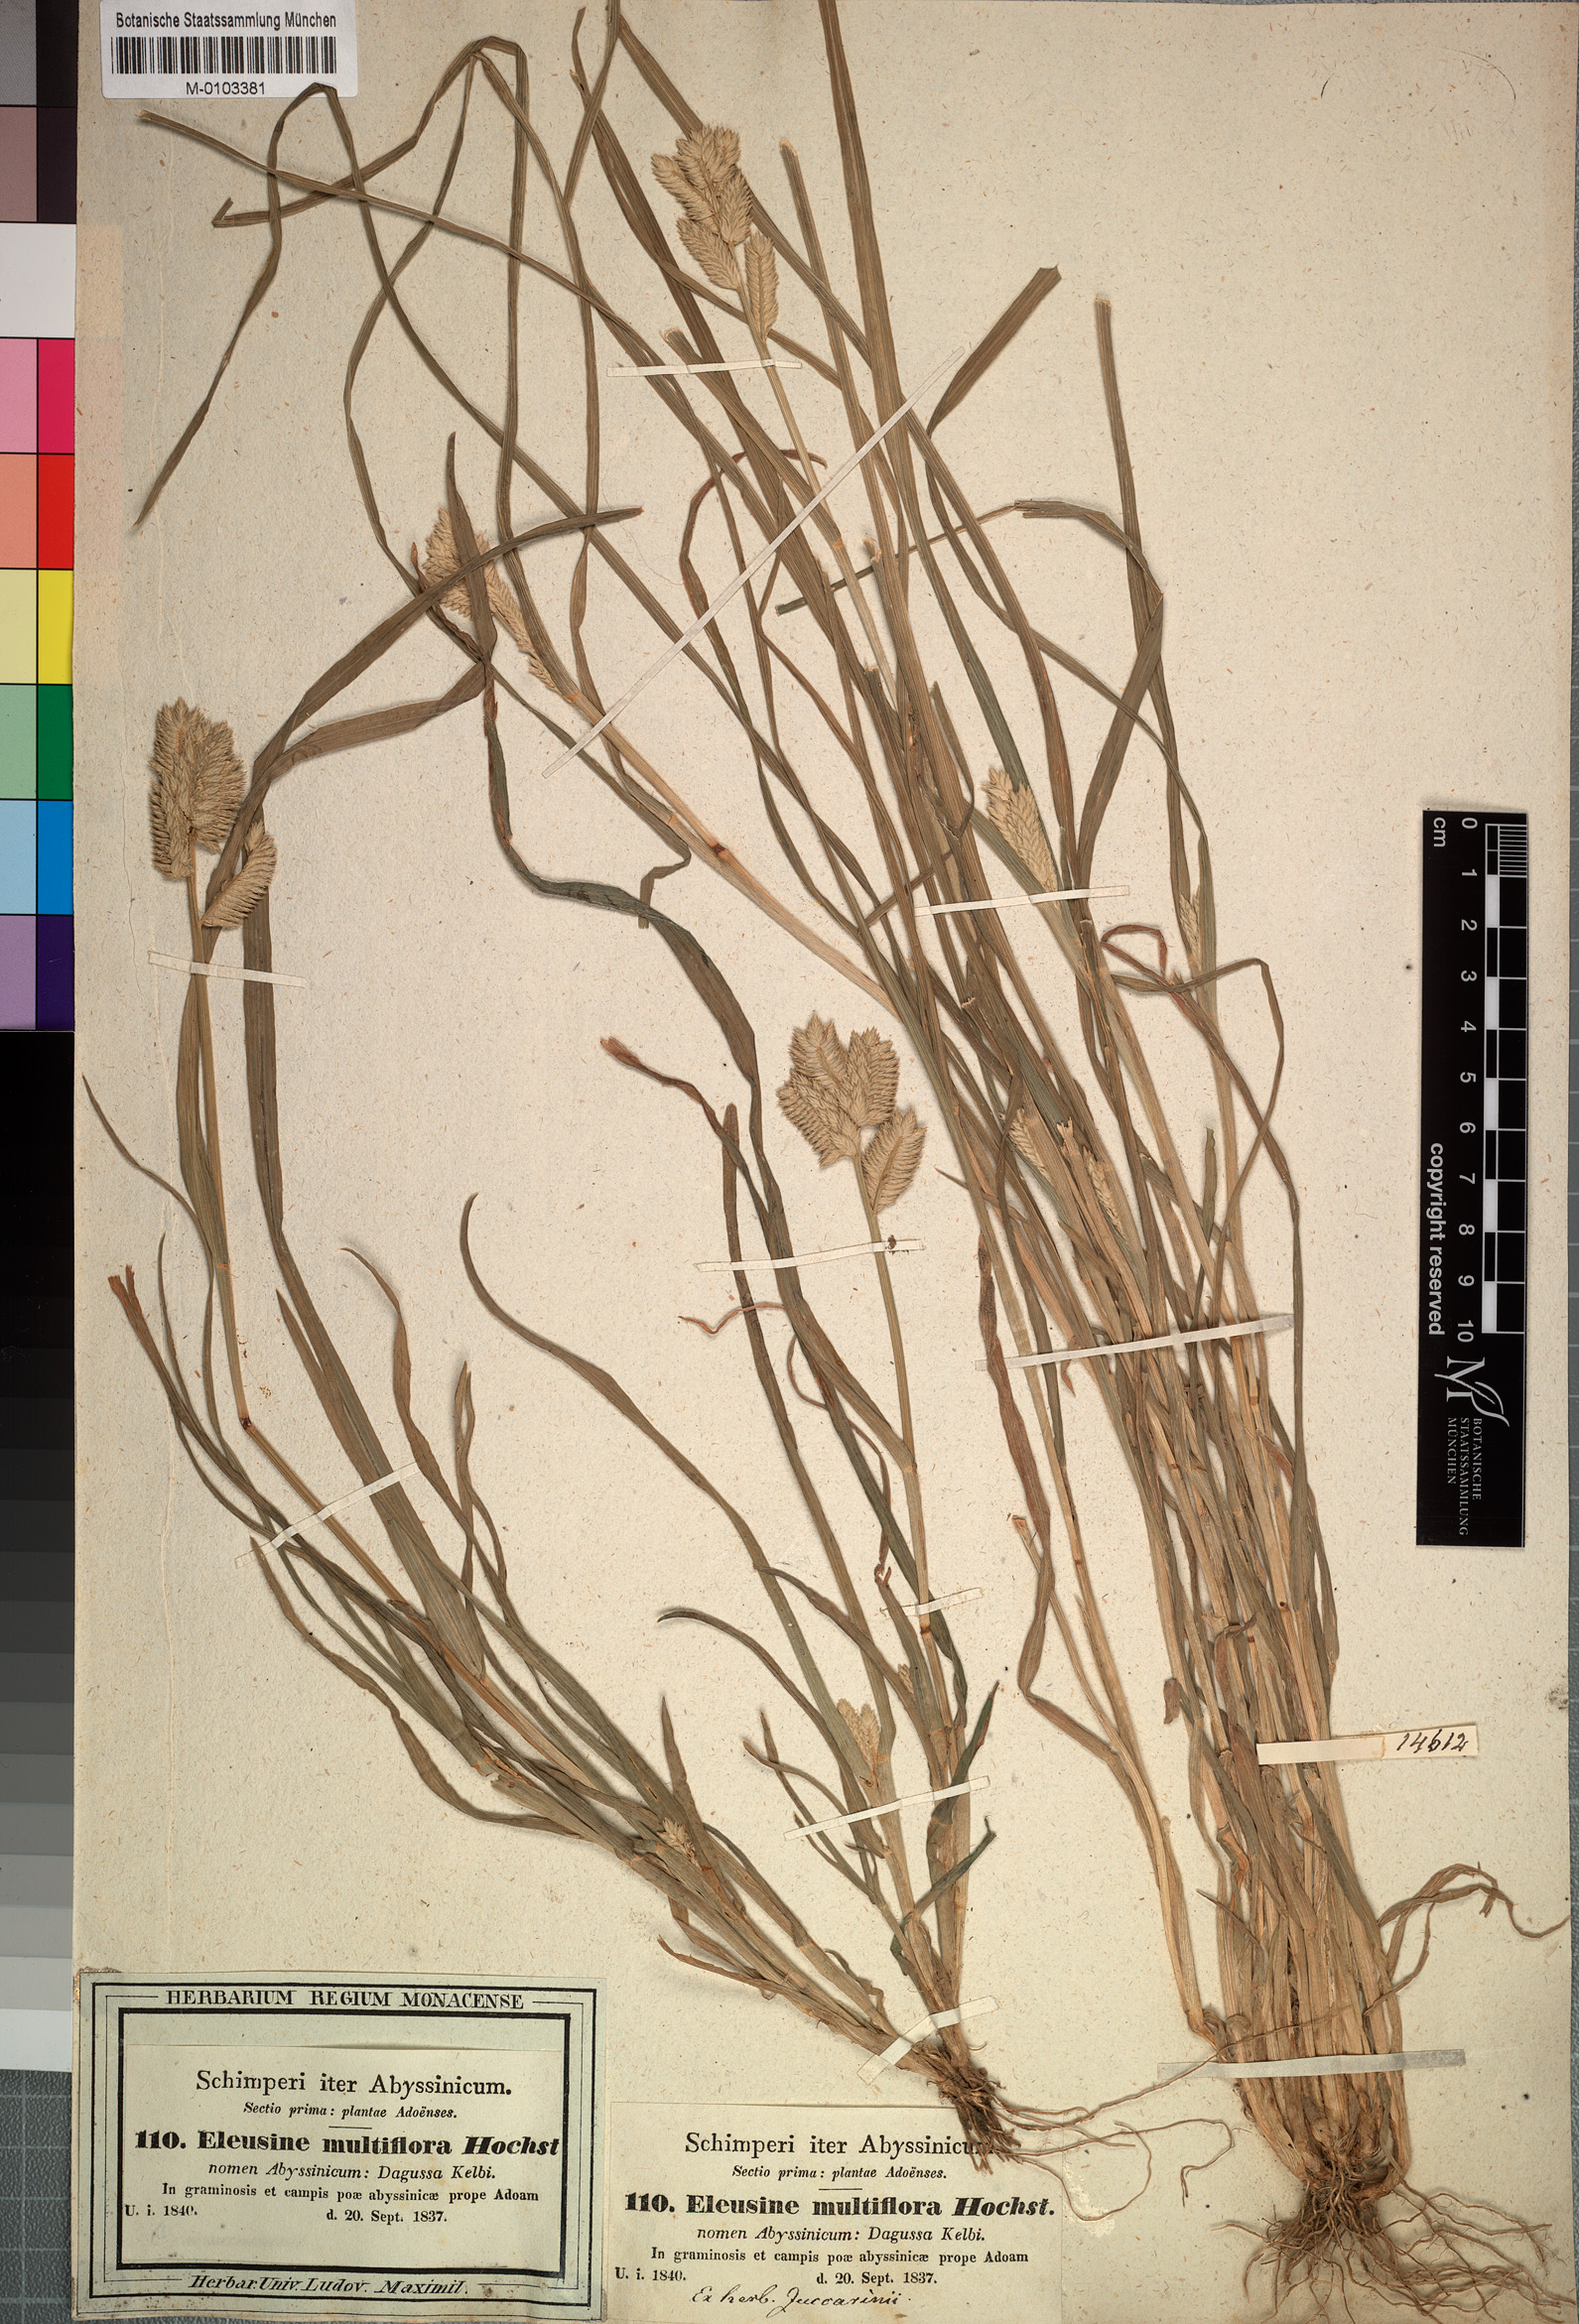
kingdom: Plantae
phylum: Tracheophyta
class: Liliopsida
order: Poales
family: Poaceae
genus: Eleusine
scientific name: Eleusine multiflora
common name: Fat-spiked yard-grass
